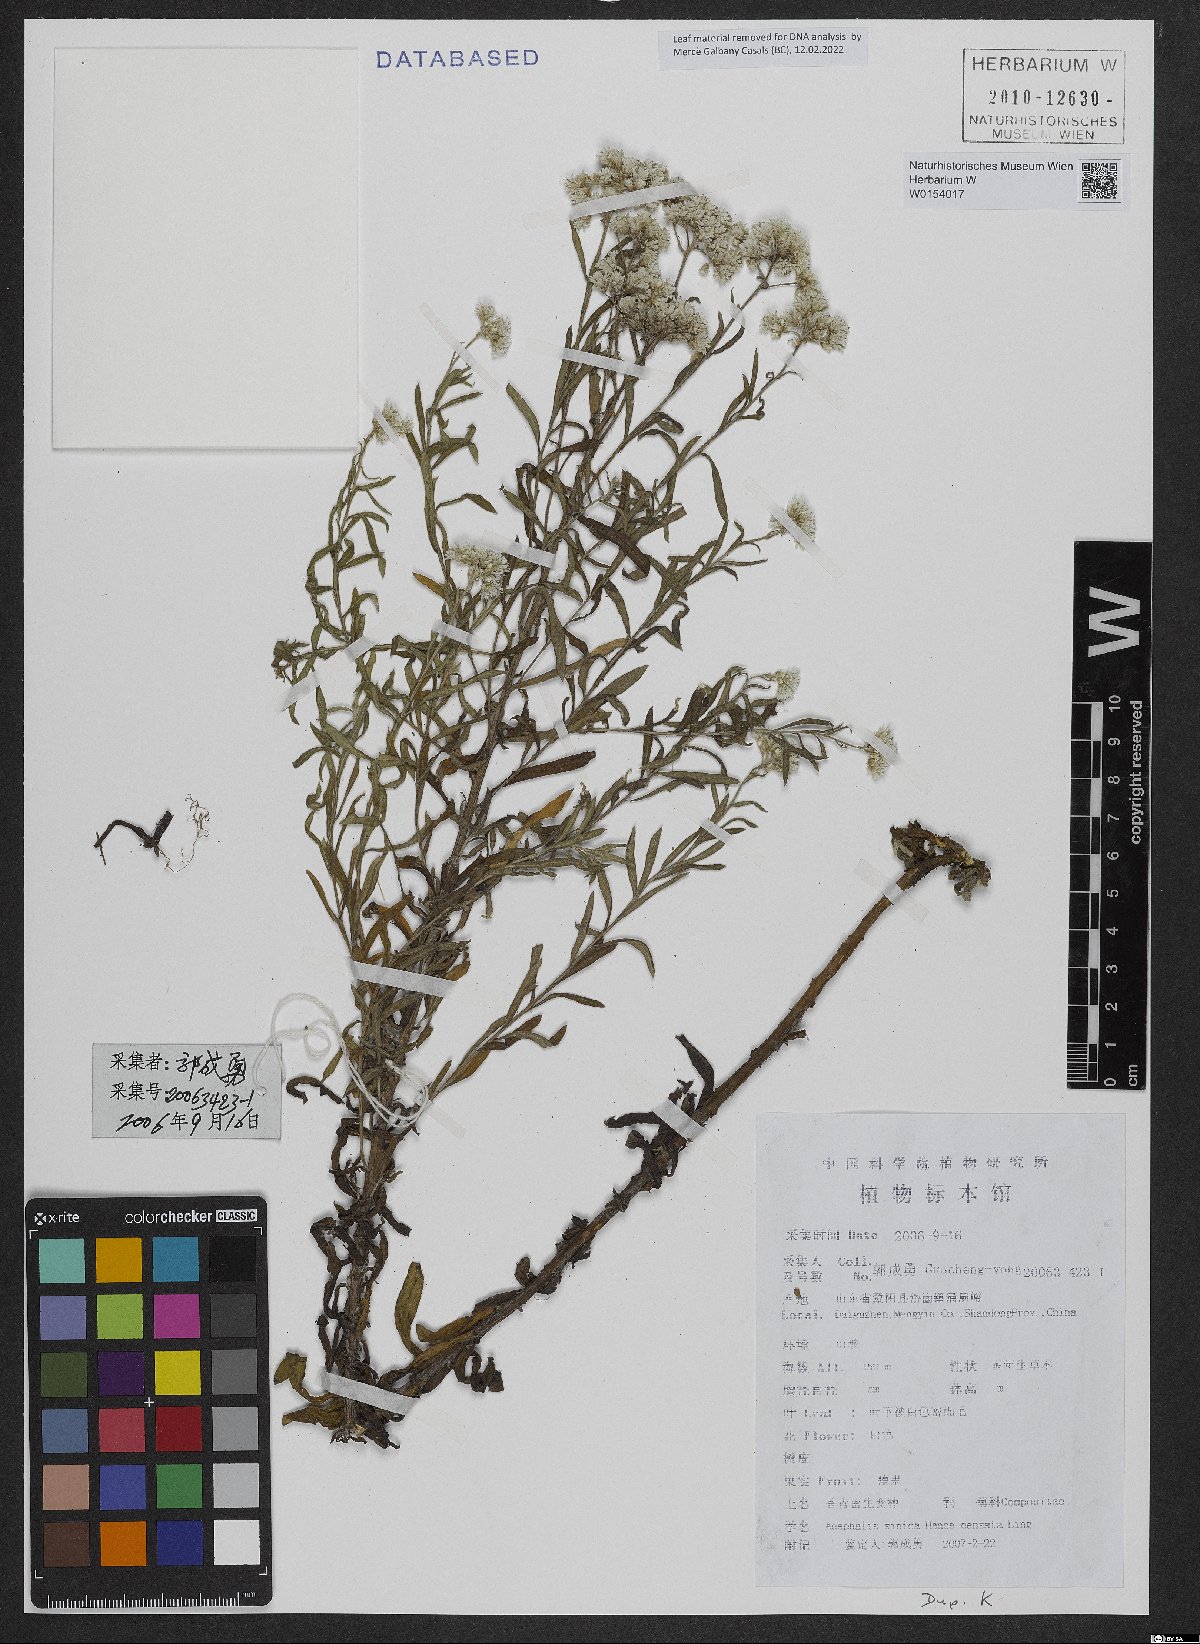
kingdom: Plantae
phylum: Tracheophyta
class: Magnoliopsida
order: Asterales
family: Asteraceae
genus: Anaphalis
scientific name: Anaphalis sinica
